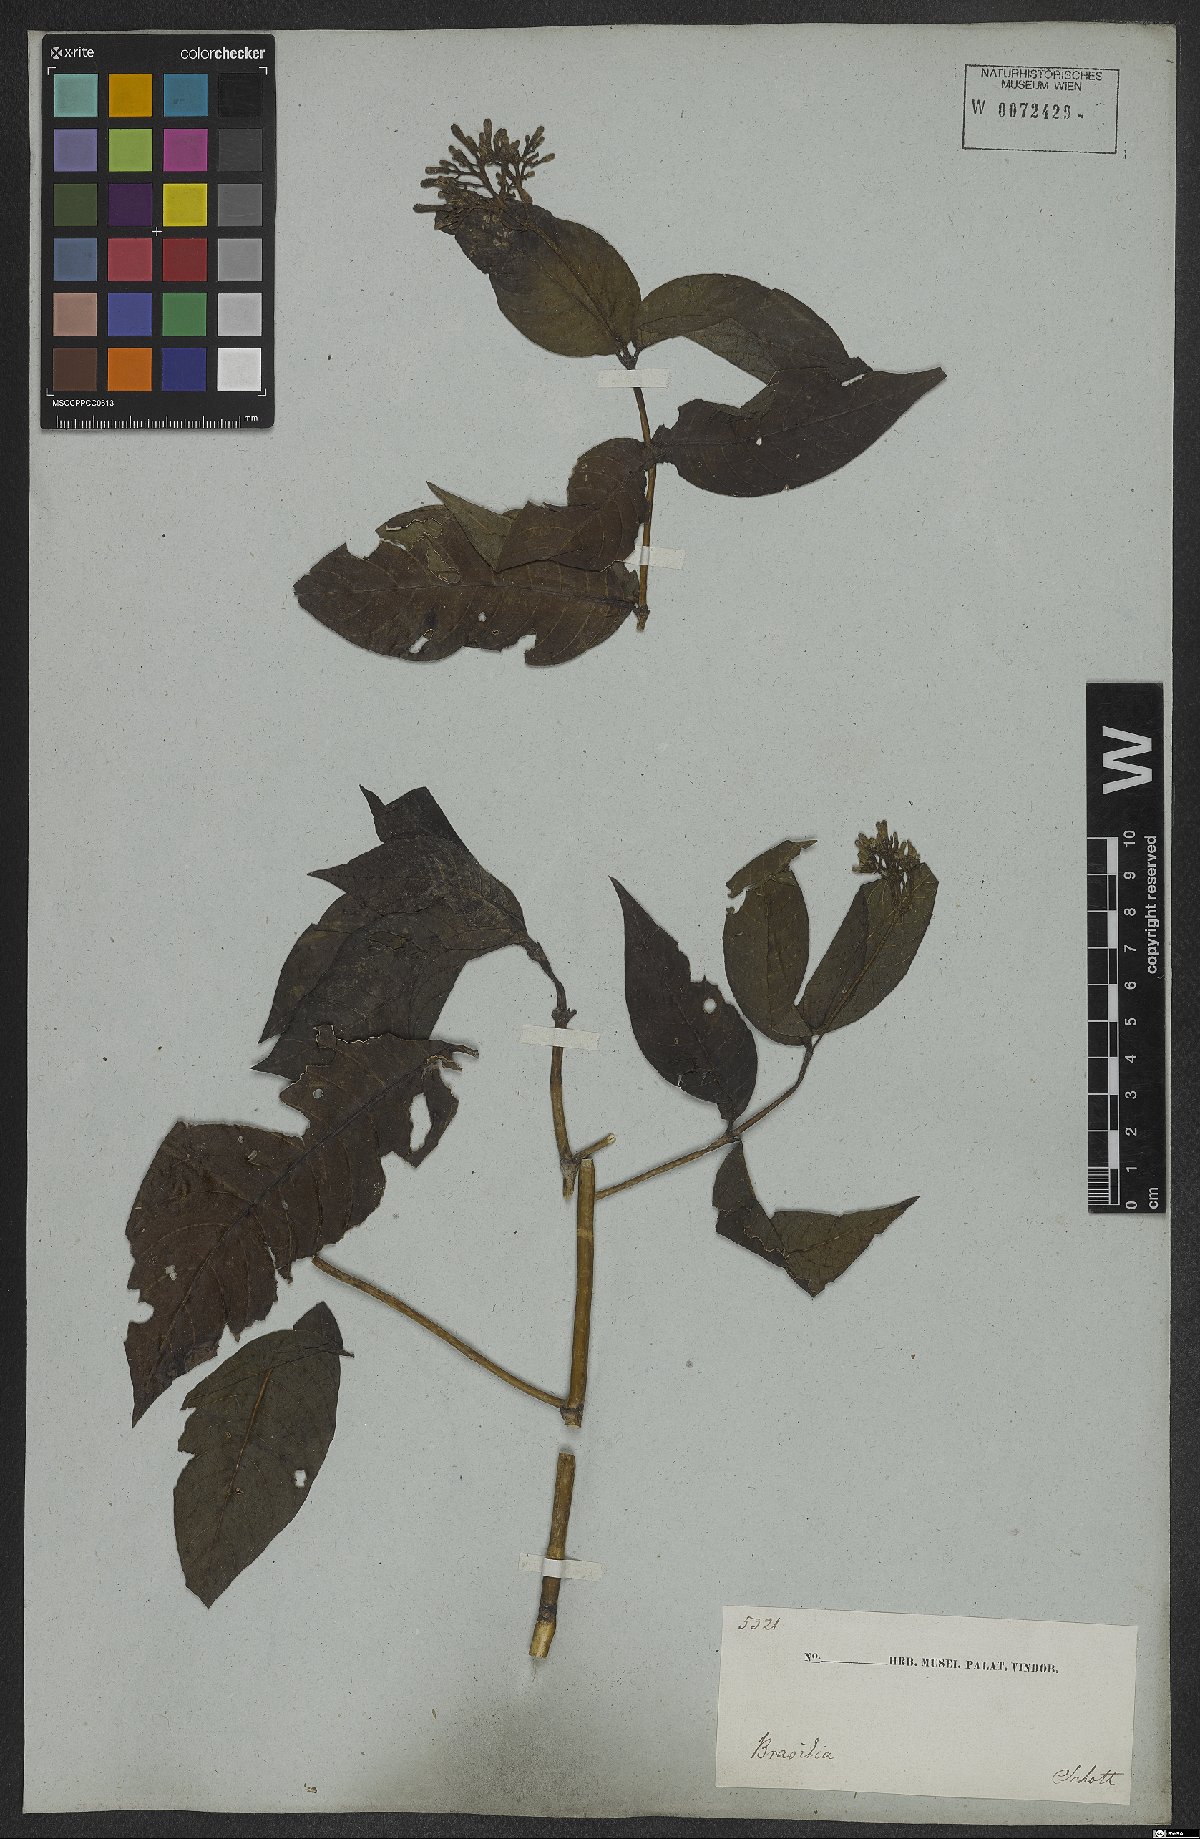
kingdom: Plantae
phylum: Tracheophyta
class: Magnoliopsida
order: Gentianales
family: Rubiaceae
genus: Palicourea
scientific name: Palicourea marcgravii
